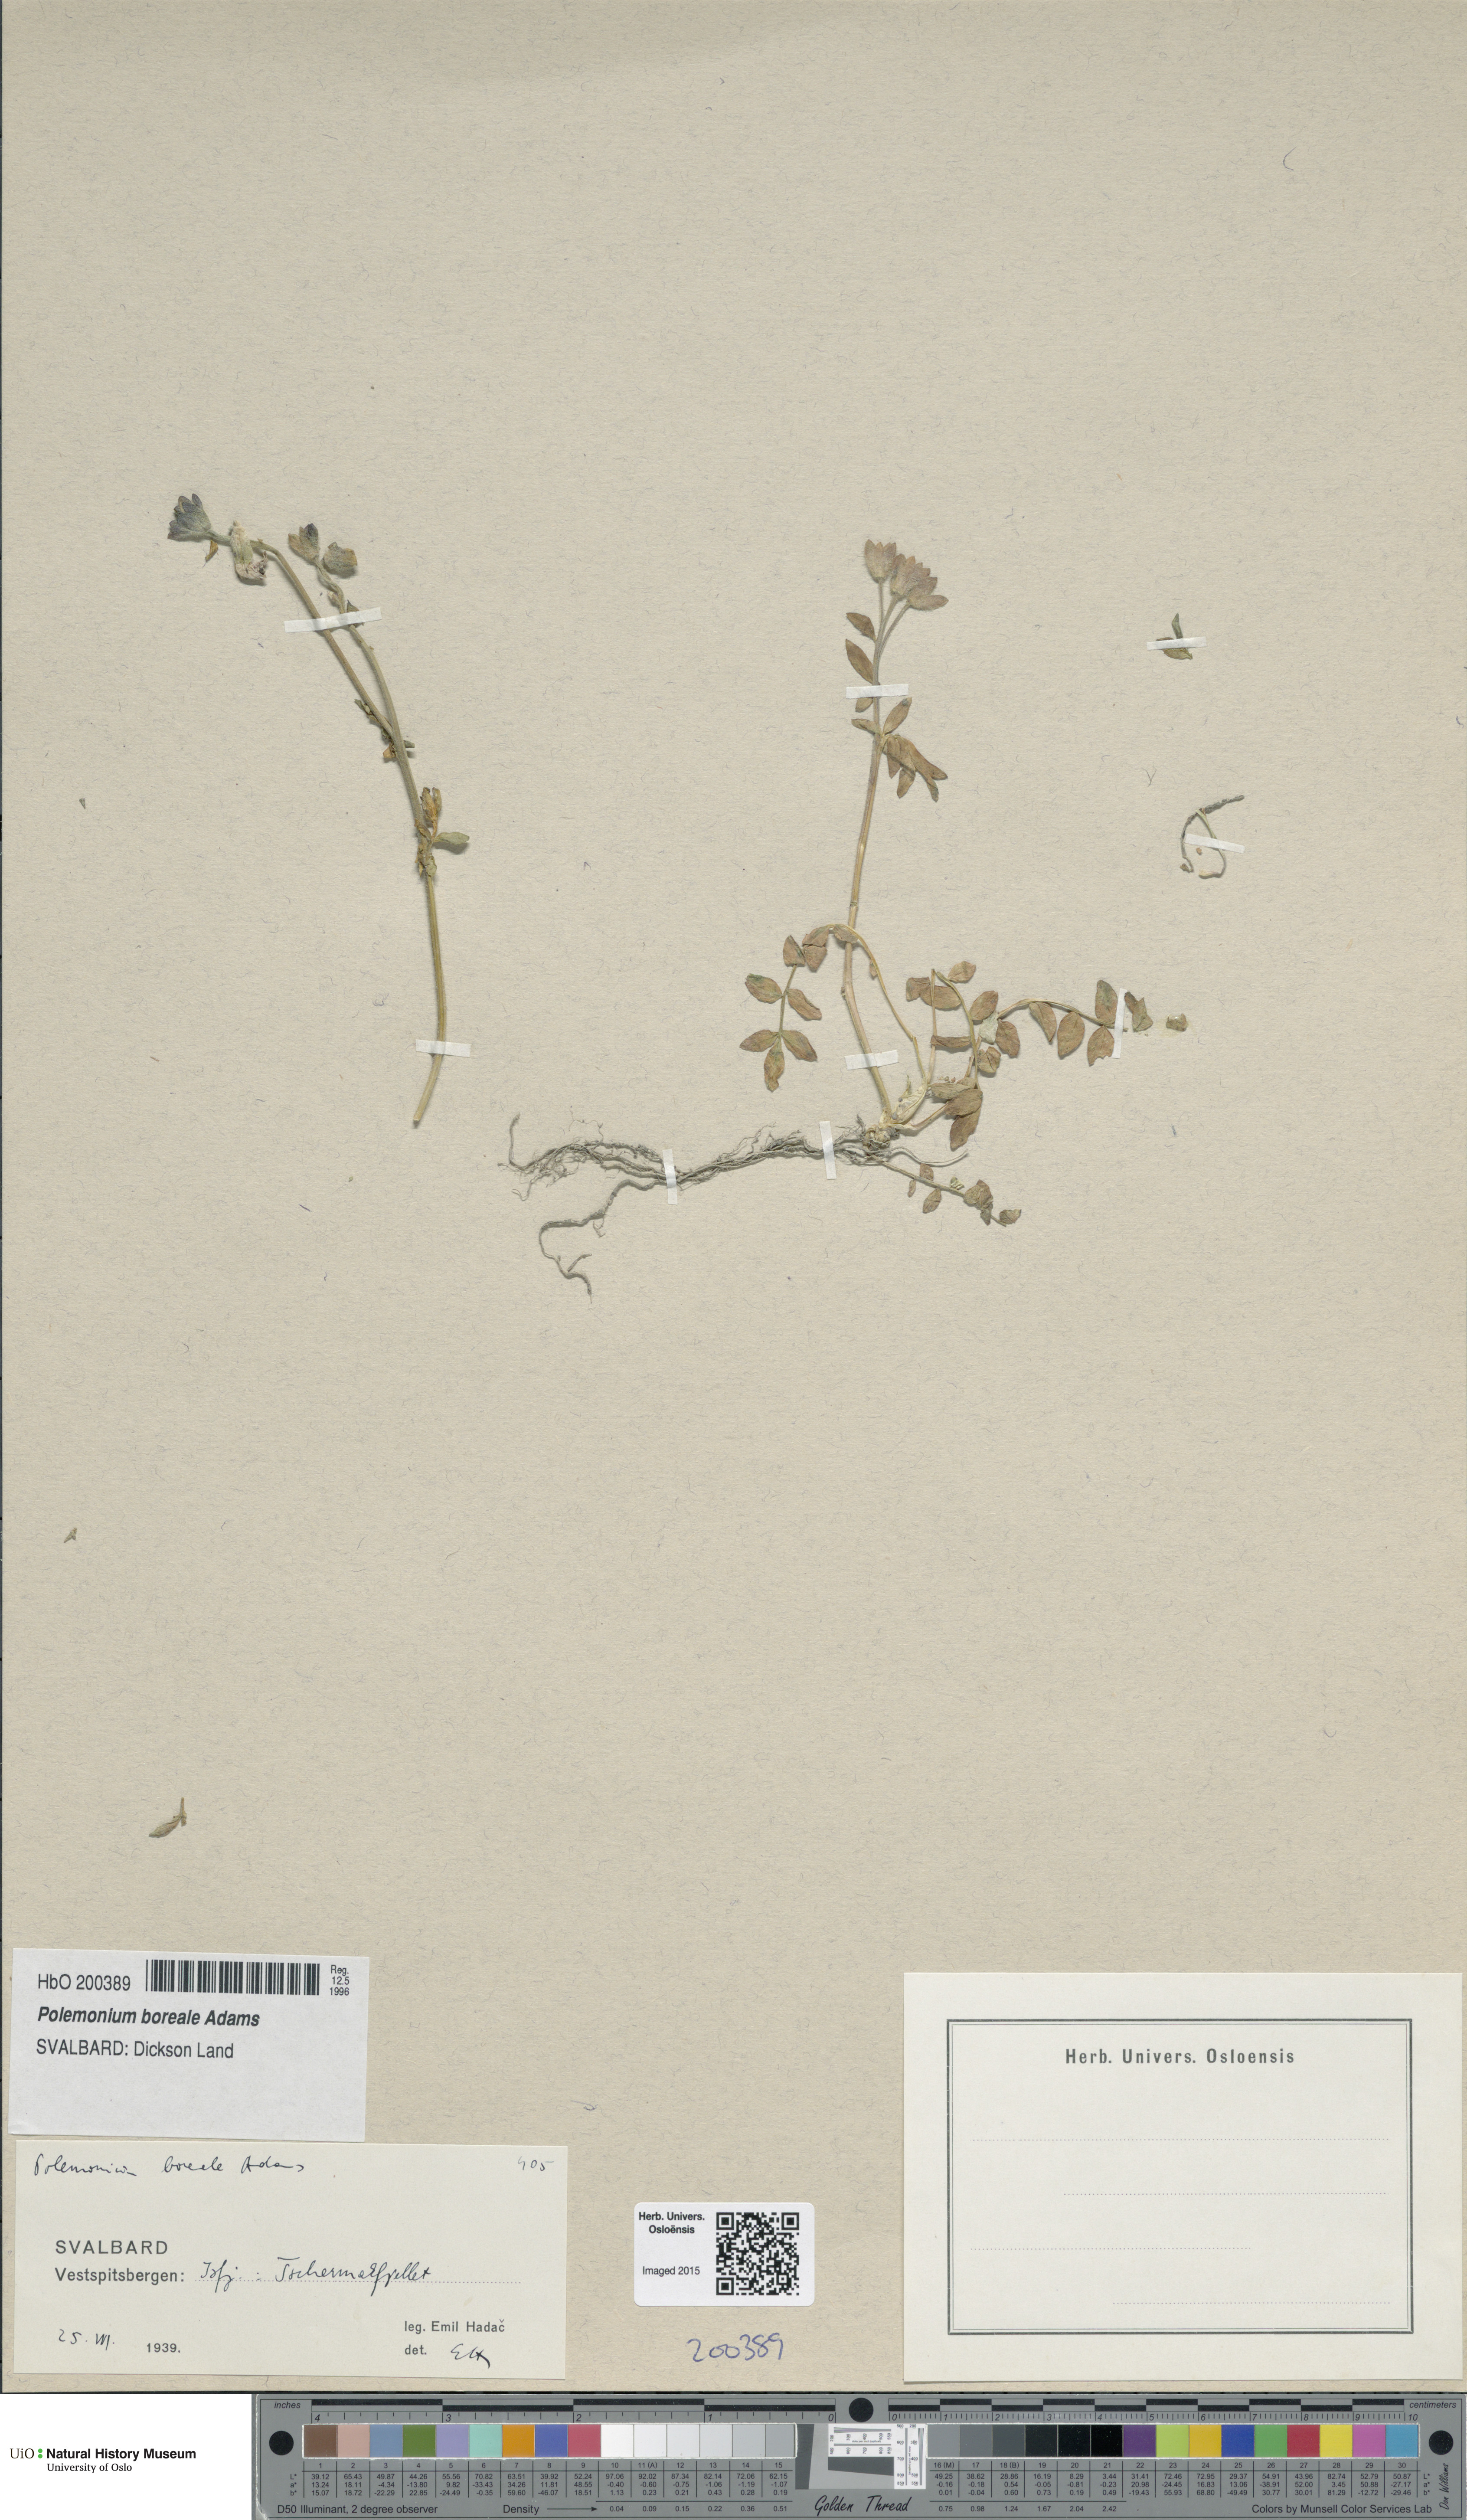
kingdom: Plantae
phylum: Tracheophyta
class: Magnoliopsida
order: Ericales
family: Polemoniaceae
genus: Polemonium
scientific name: Polemonium boreale
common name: Boreal jacob's-ladder
